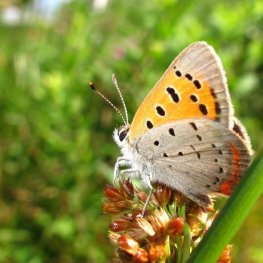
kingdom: Animalia
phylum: Arthropoda
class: Insecta
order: Lepidoptera
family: Lycaenidae
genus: Lycaena
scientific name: Lycaena phlaeas
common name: American Copper
